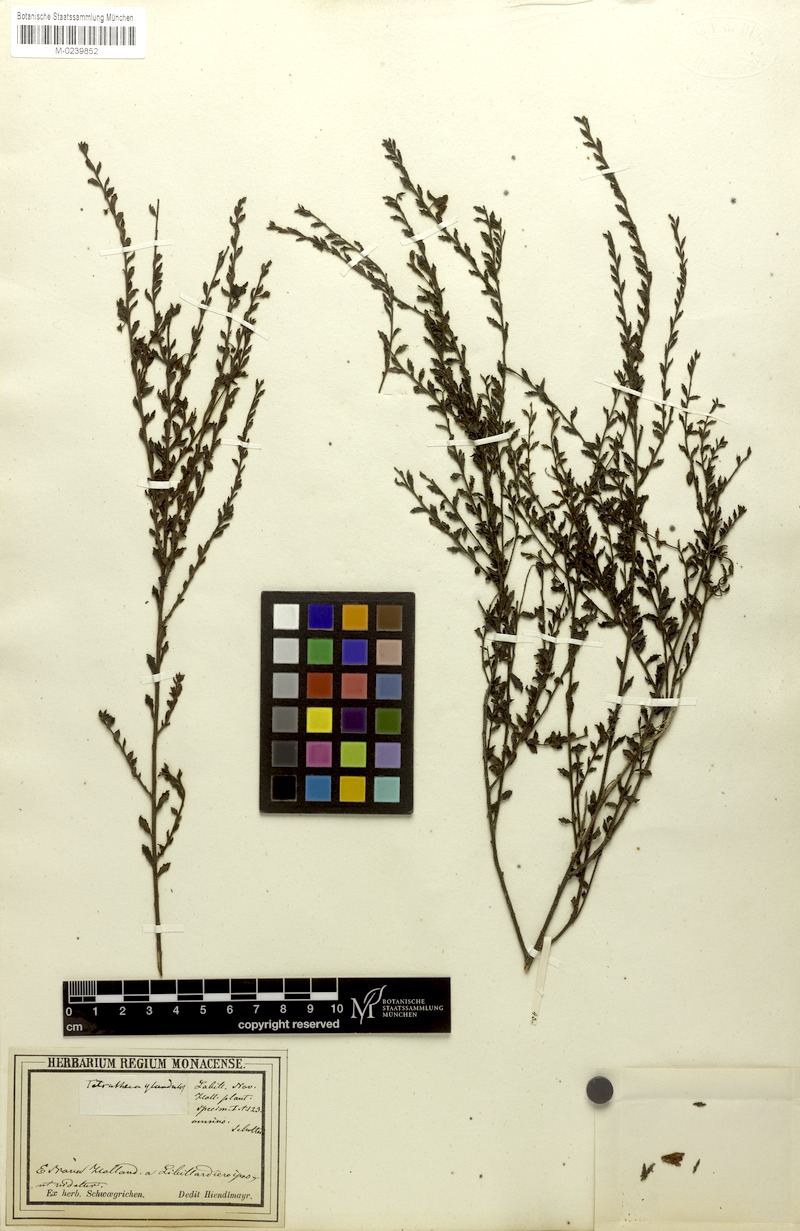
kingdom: Plantae
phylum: Tracheophyta
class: Magnoliopsida
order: Oxalidales
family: Elaeocarpaceae
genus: Tetratheca
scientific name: Tetratheca labillardierei
